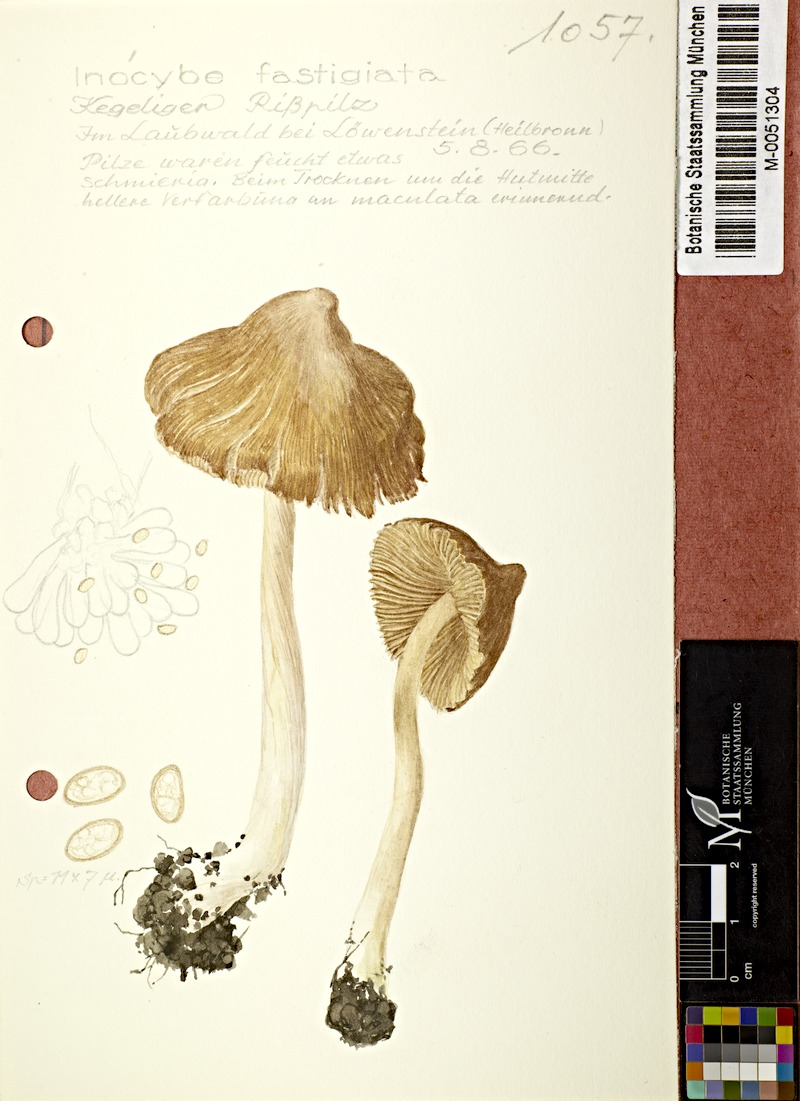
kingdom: Fungi
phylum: Basidiomycota
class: Agaricomycetes
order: Agaricales
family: Inocybaceae
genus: Pseudosperma
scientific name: Pseudosperma rimosum
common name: Split fibrecap
